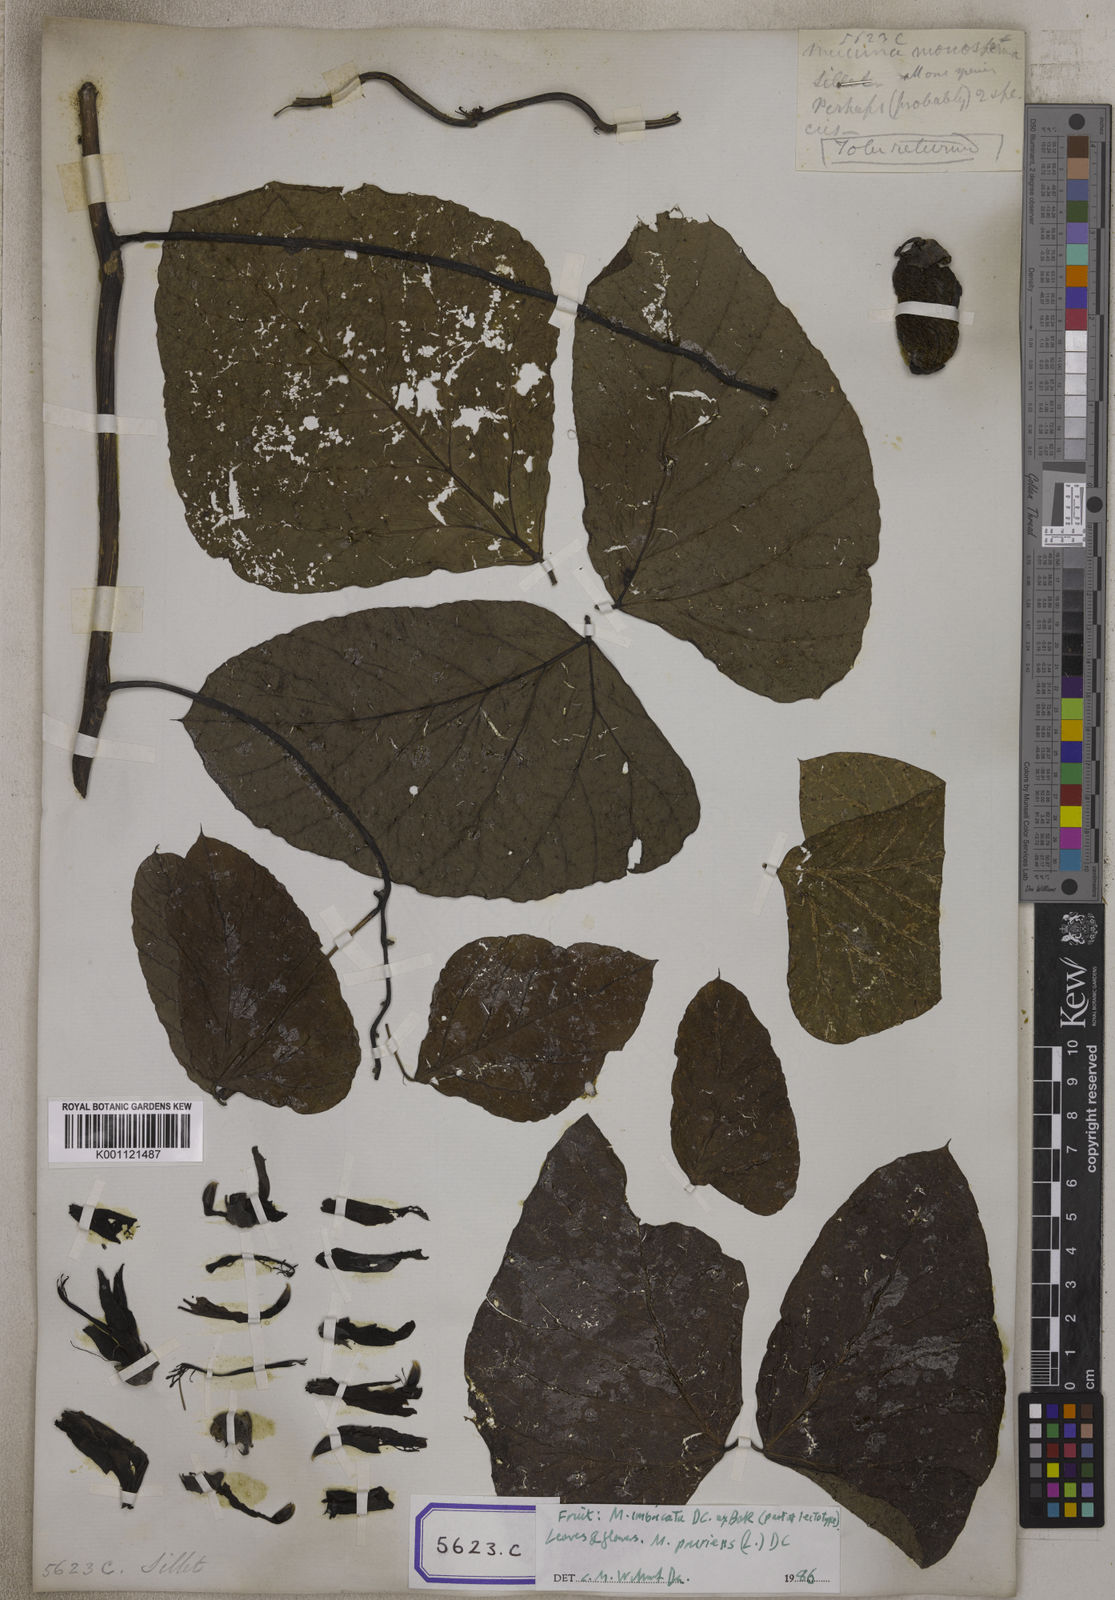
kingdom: Plantae
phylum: Tracheophyta
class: Magnoliopsida
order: Fabales
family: Fabaceae
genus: Mucuna
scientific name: Mucuna
